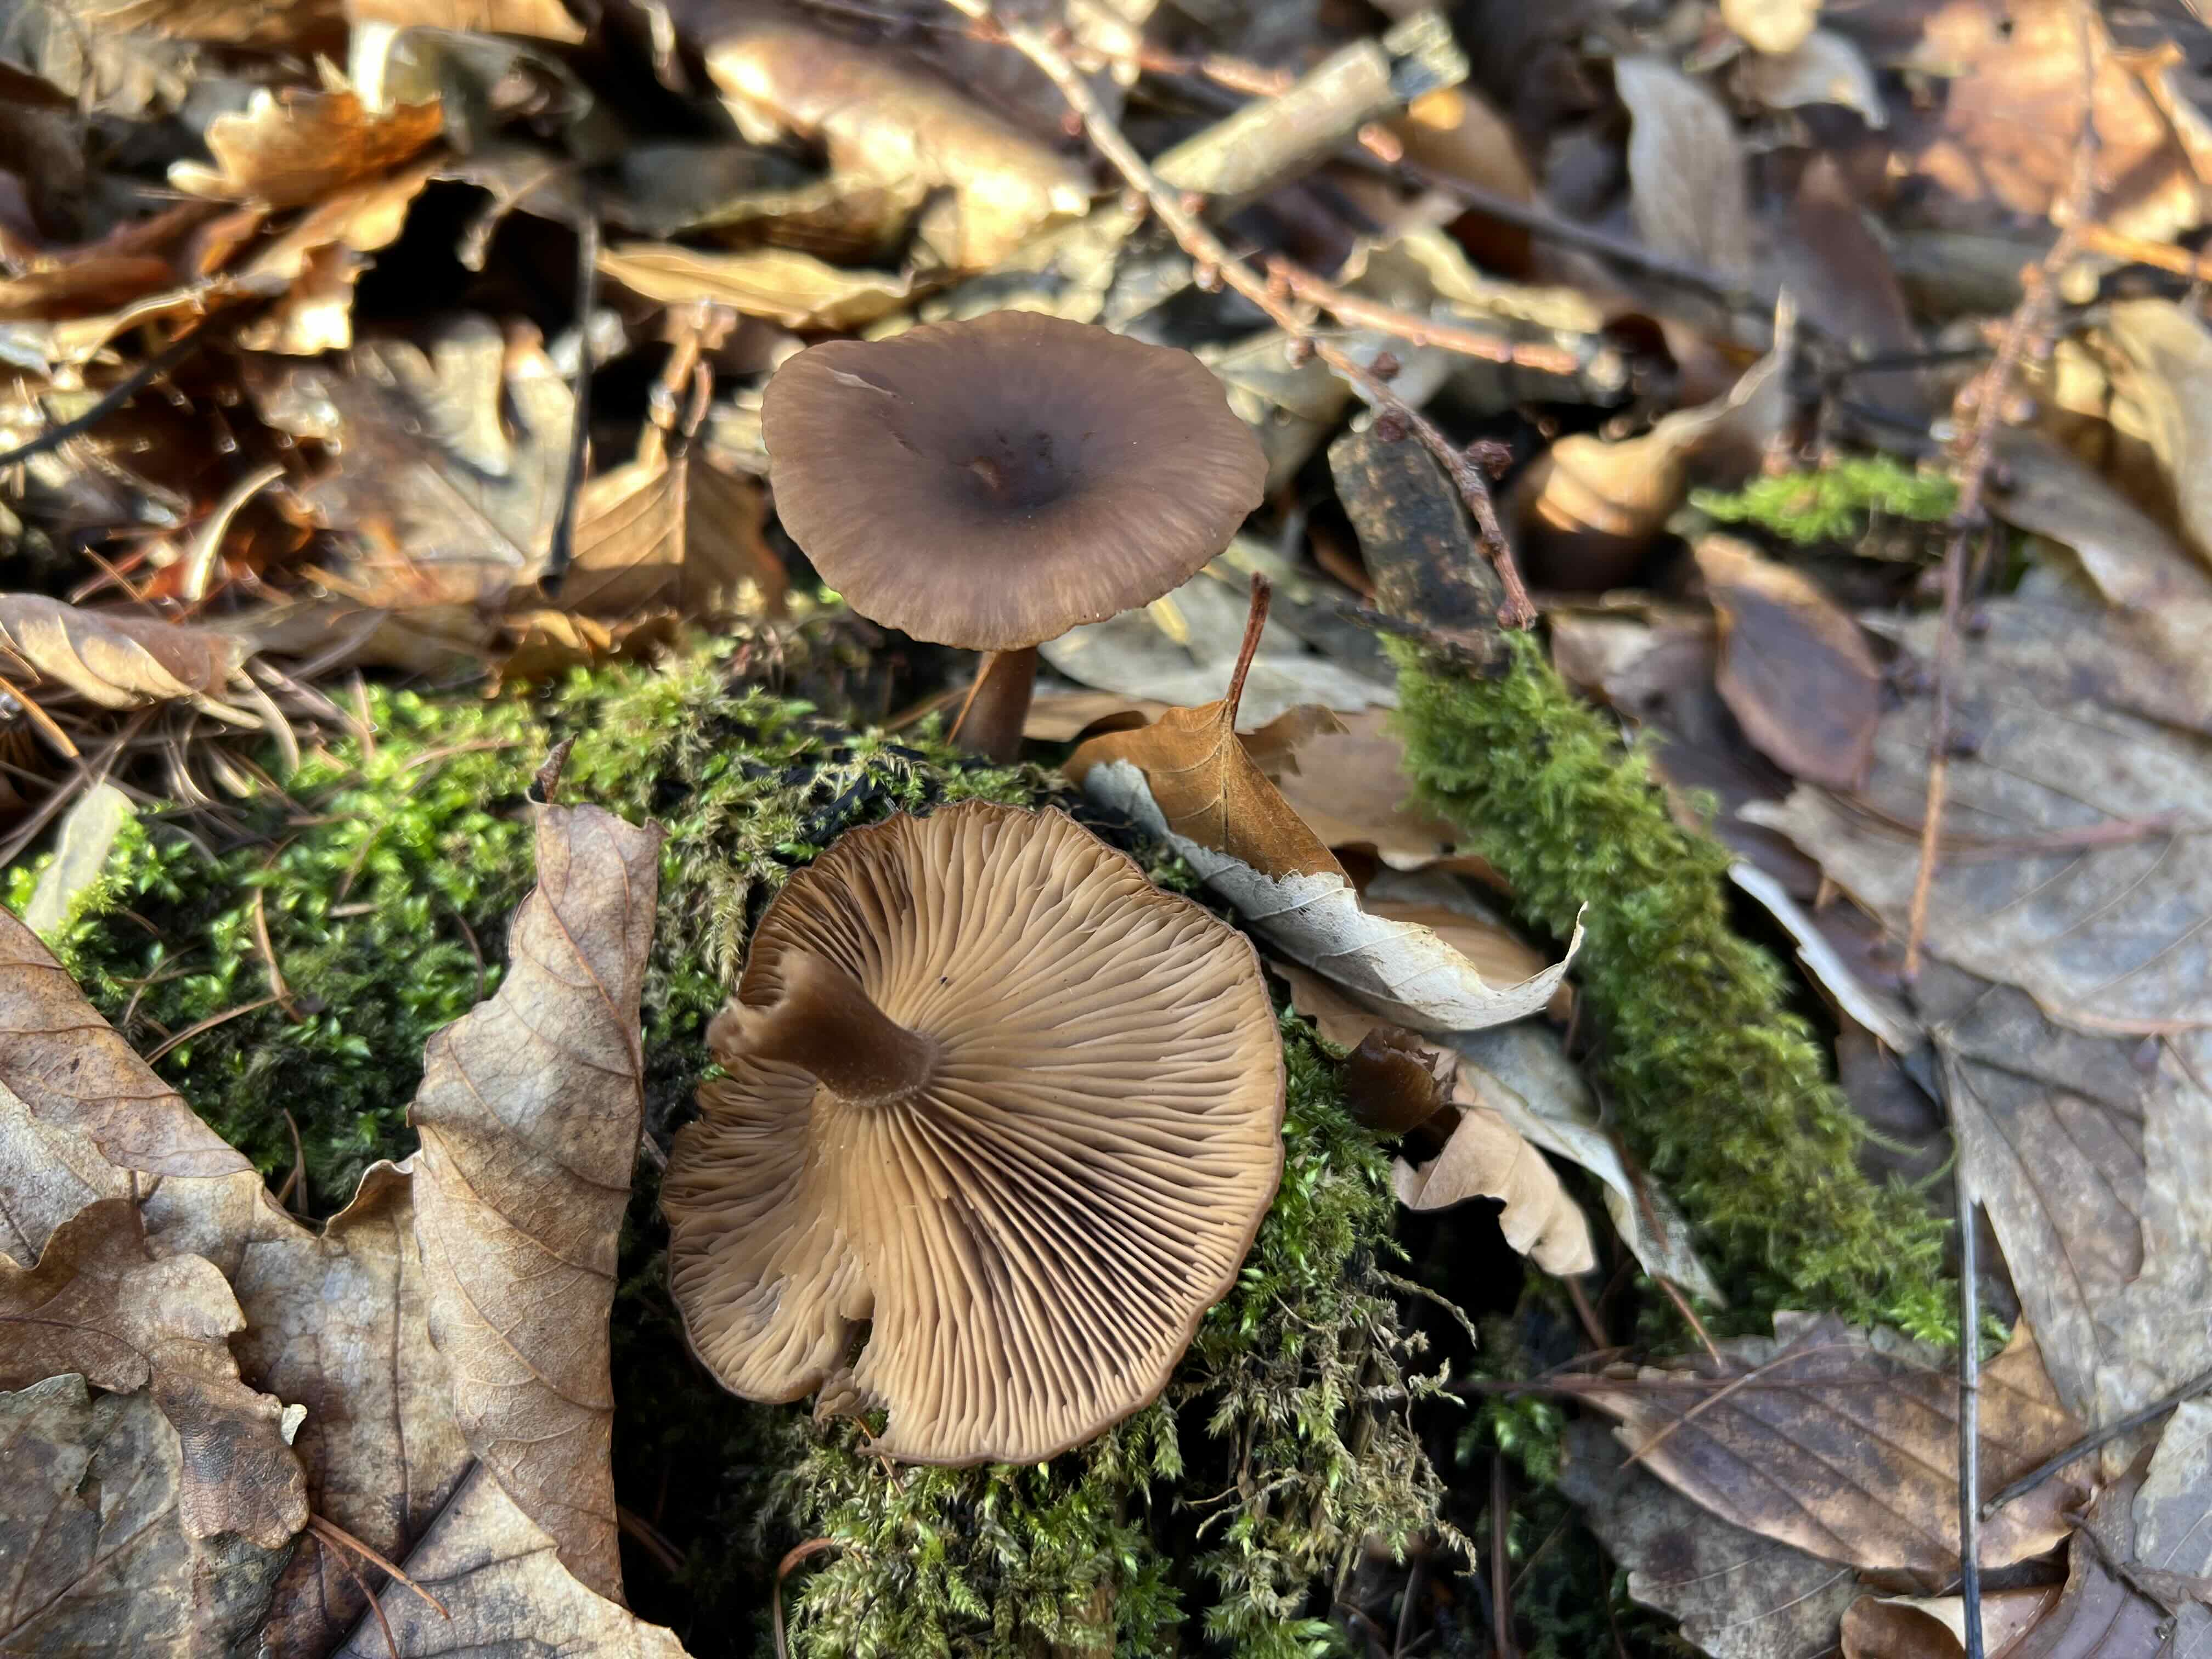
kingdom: Fungi
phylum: Basidiomycota
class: Agaricomycetes
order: Agaricales
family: Pseudoclitocybaceae
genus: Pseudoclitocybe
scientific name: Pseudoclitocybe cyathiformis
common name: almindelig bægertragthat
